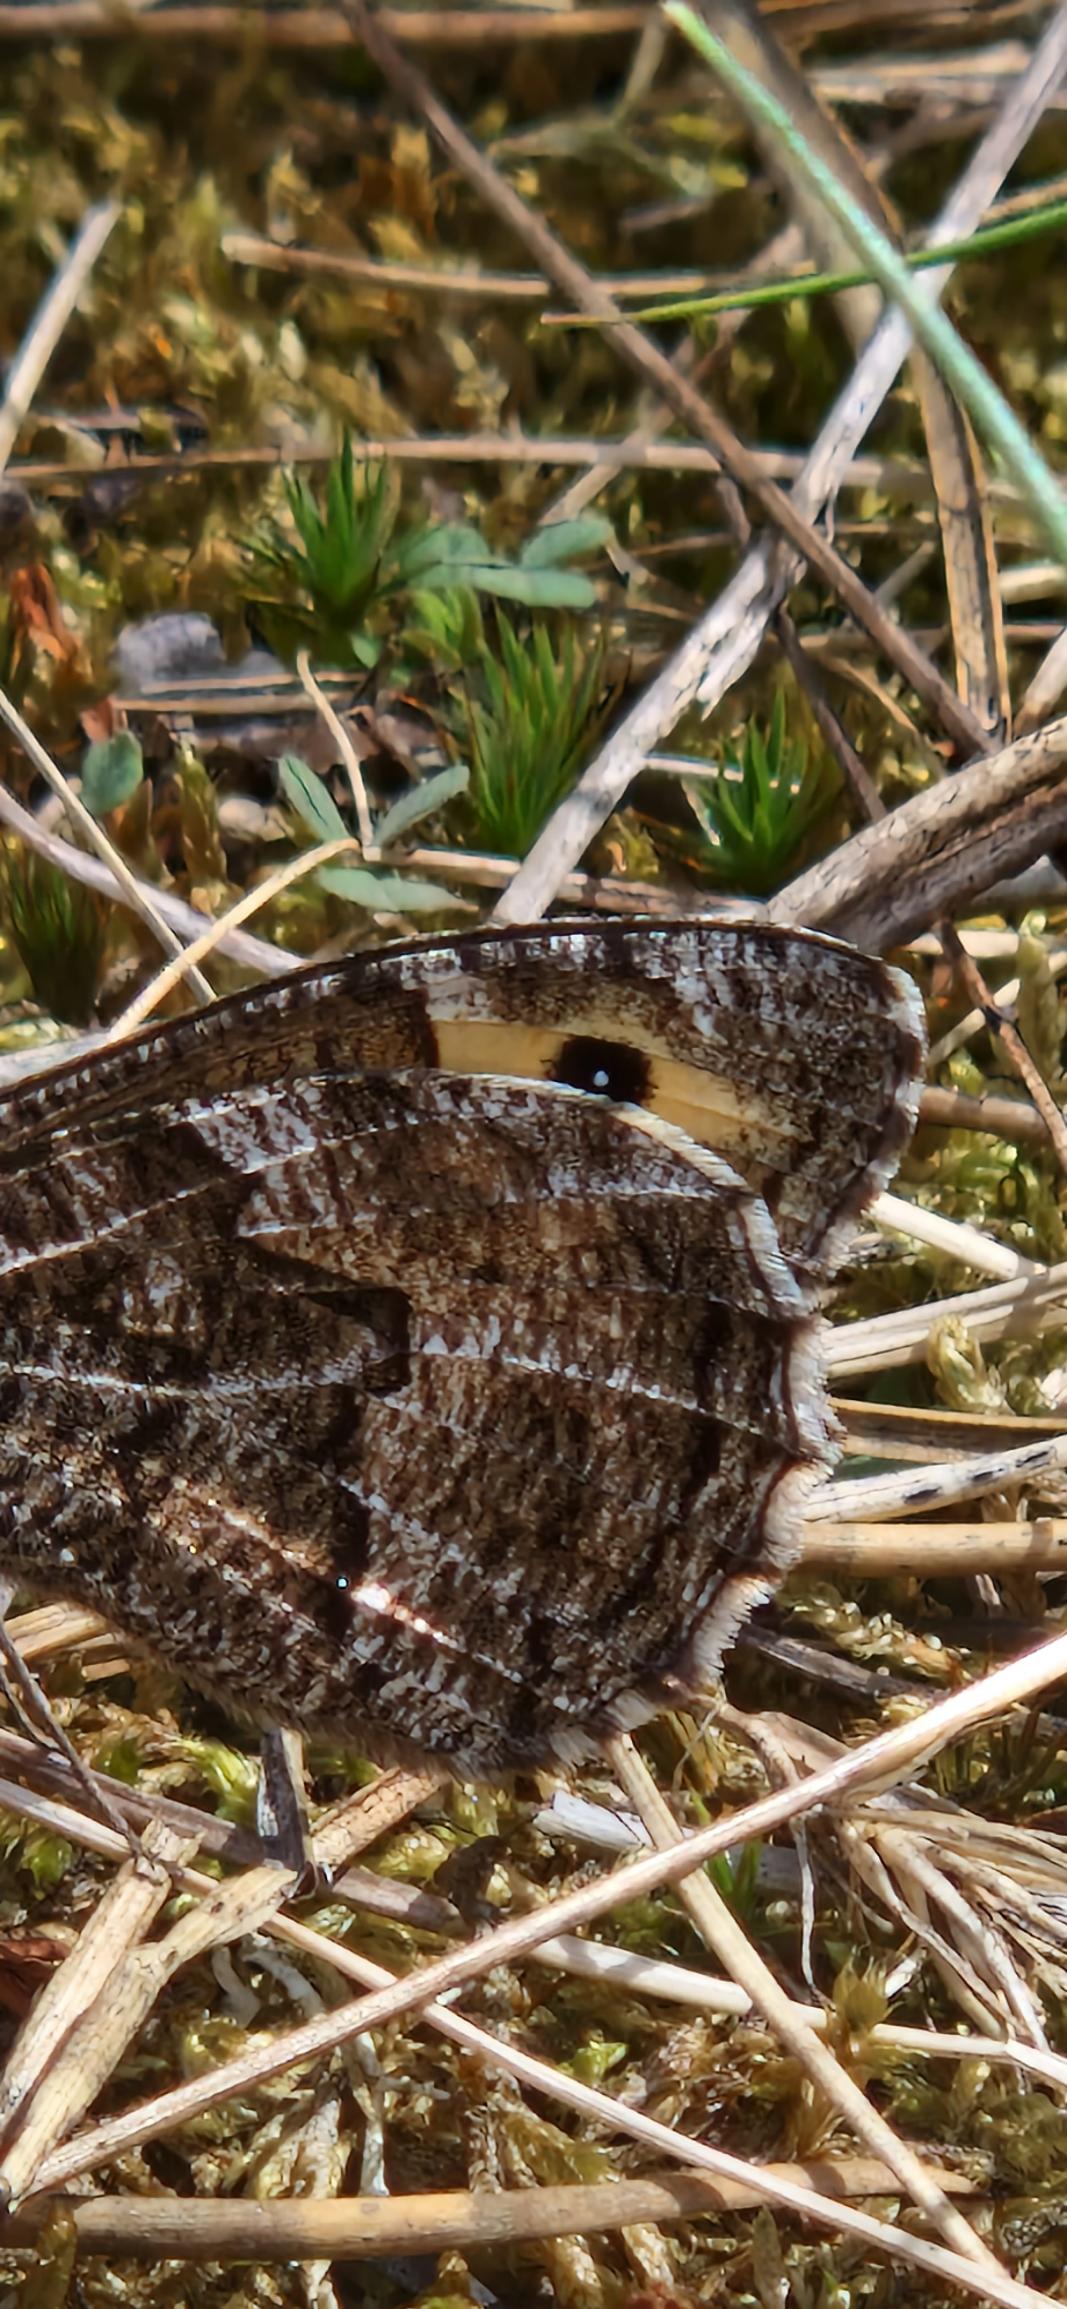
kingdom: Animalia
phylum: Arthropoda
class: Insecta
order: Lepidoptera
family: Nymphalidae
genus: Hipparchia
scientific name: Hipparchia semele
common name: Sandrandøje
